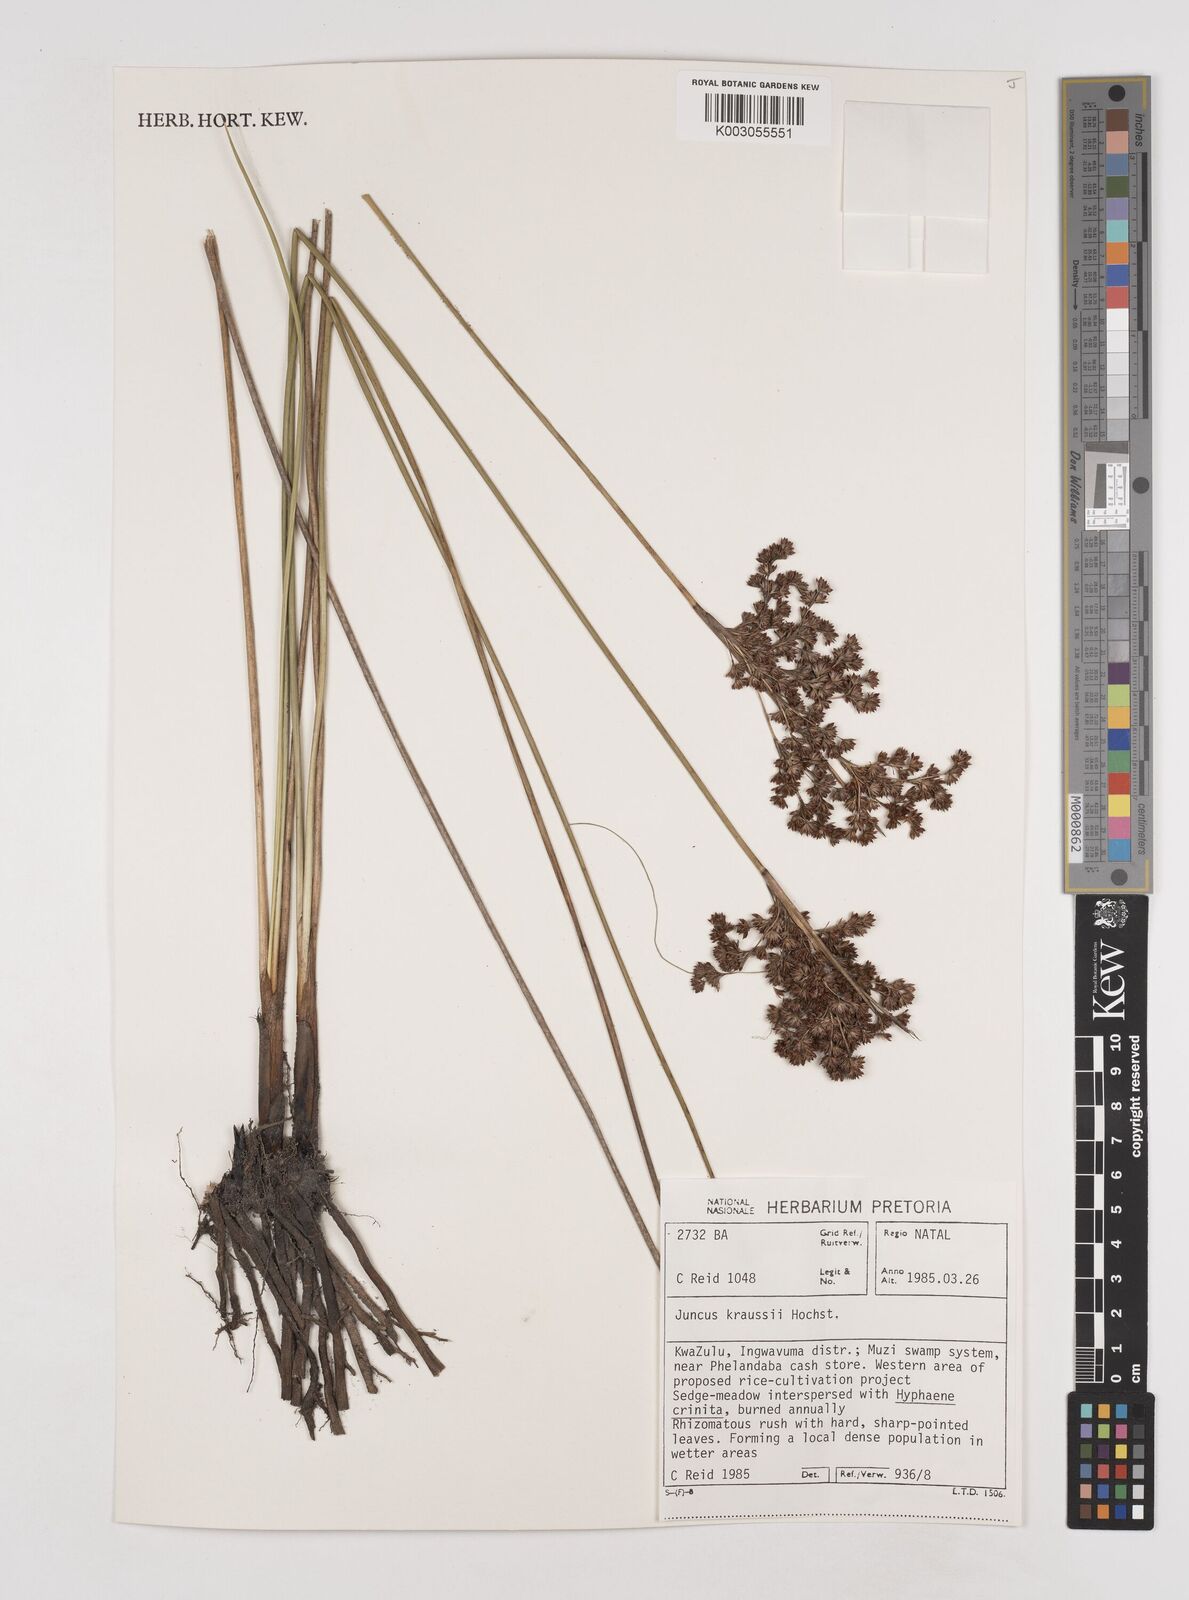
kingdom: Plantae
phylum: Tracheophyta
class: Liliopsida
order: Poales
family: Juncaceae
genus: Juncus
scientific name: Juncus kraussii
